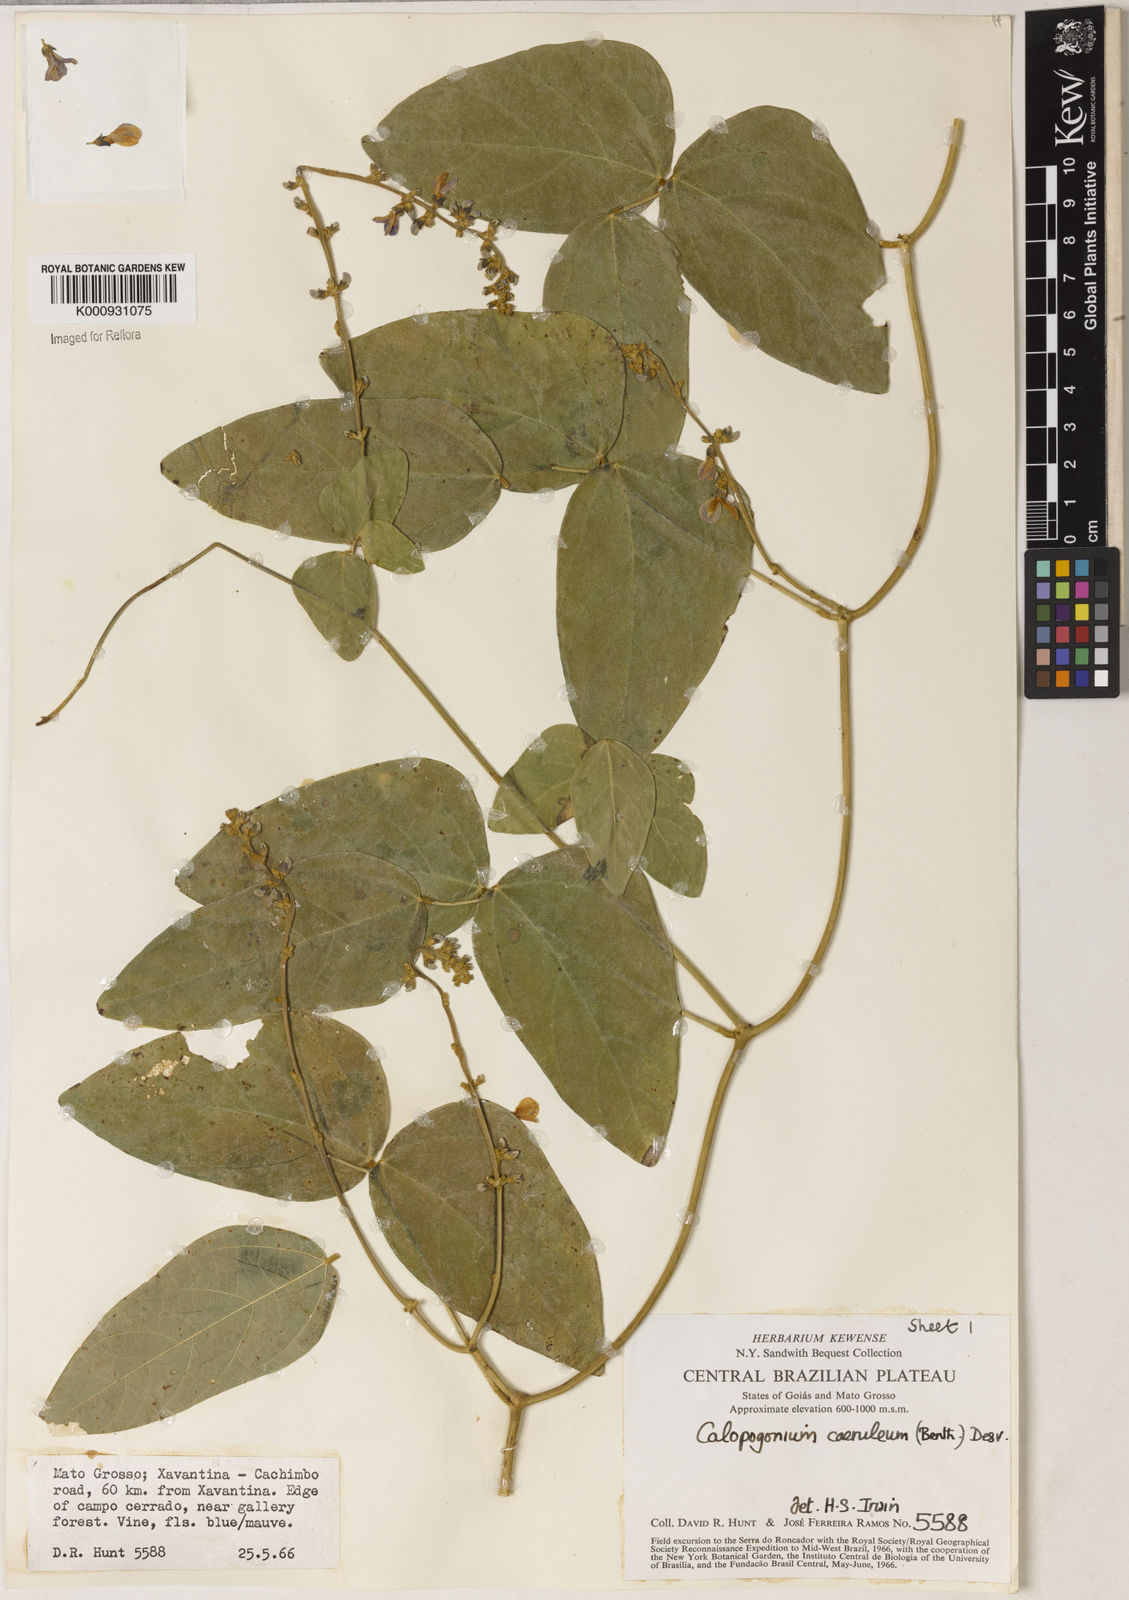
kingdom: Plantae
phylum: Tracheophyta
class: Magnoliopsida
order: Fabales
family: Fabaceae
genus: Calopogonium
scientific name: Calopogonium caeruleum
